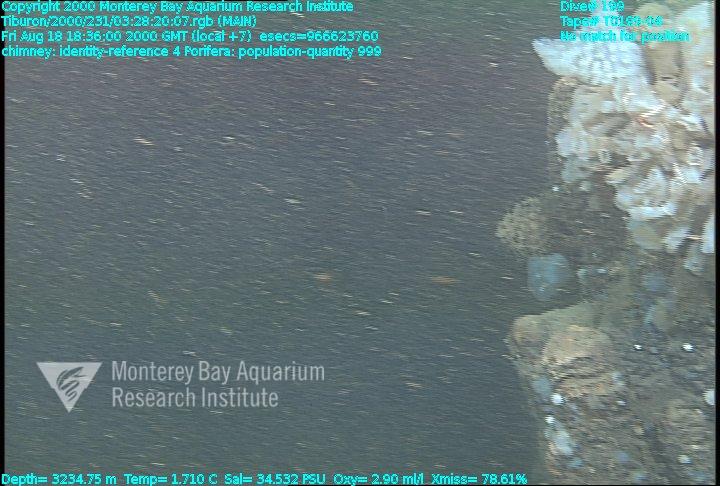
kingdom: Animalia
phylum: Porifera
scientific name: Porifera
